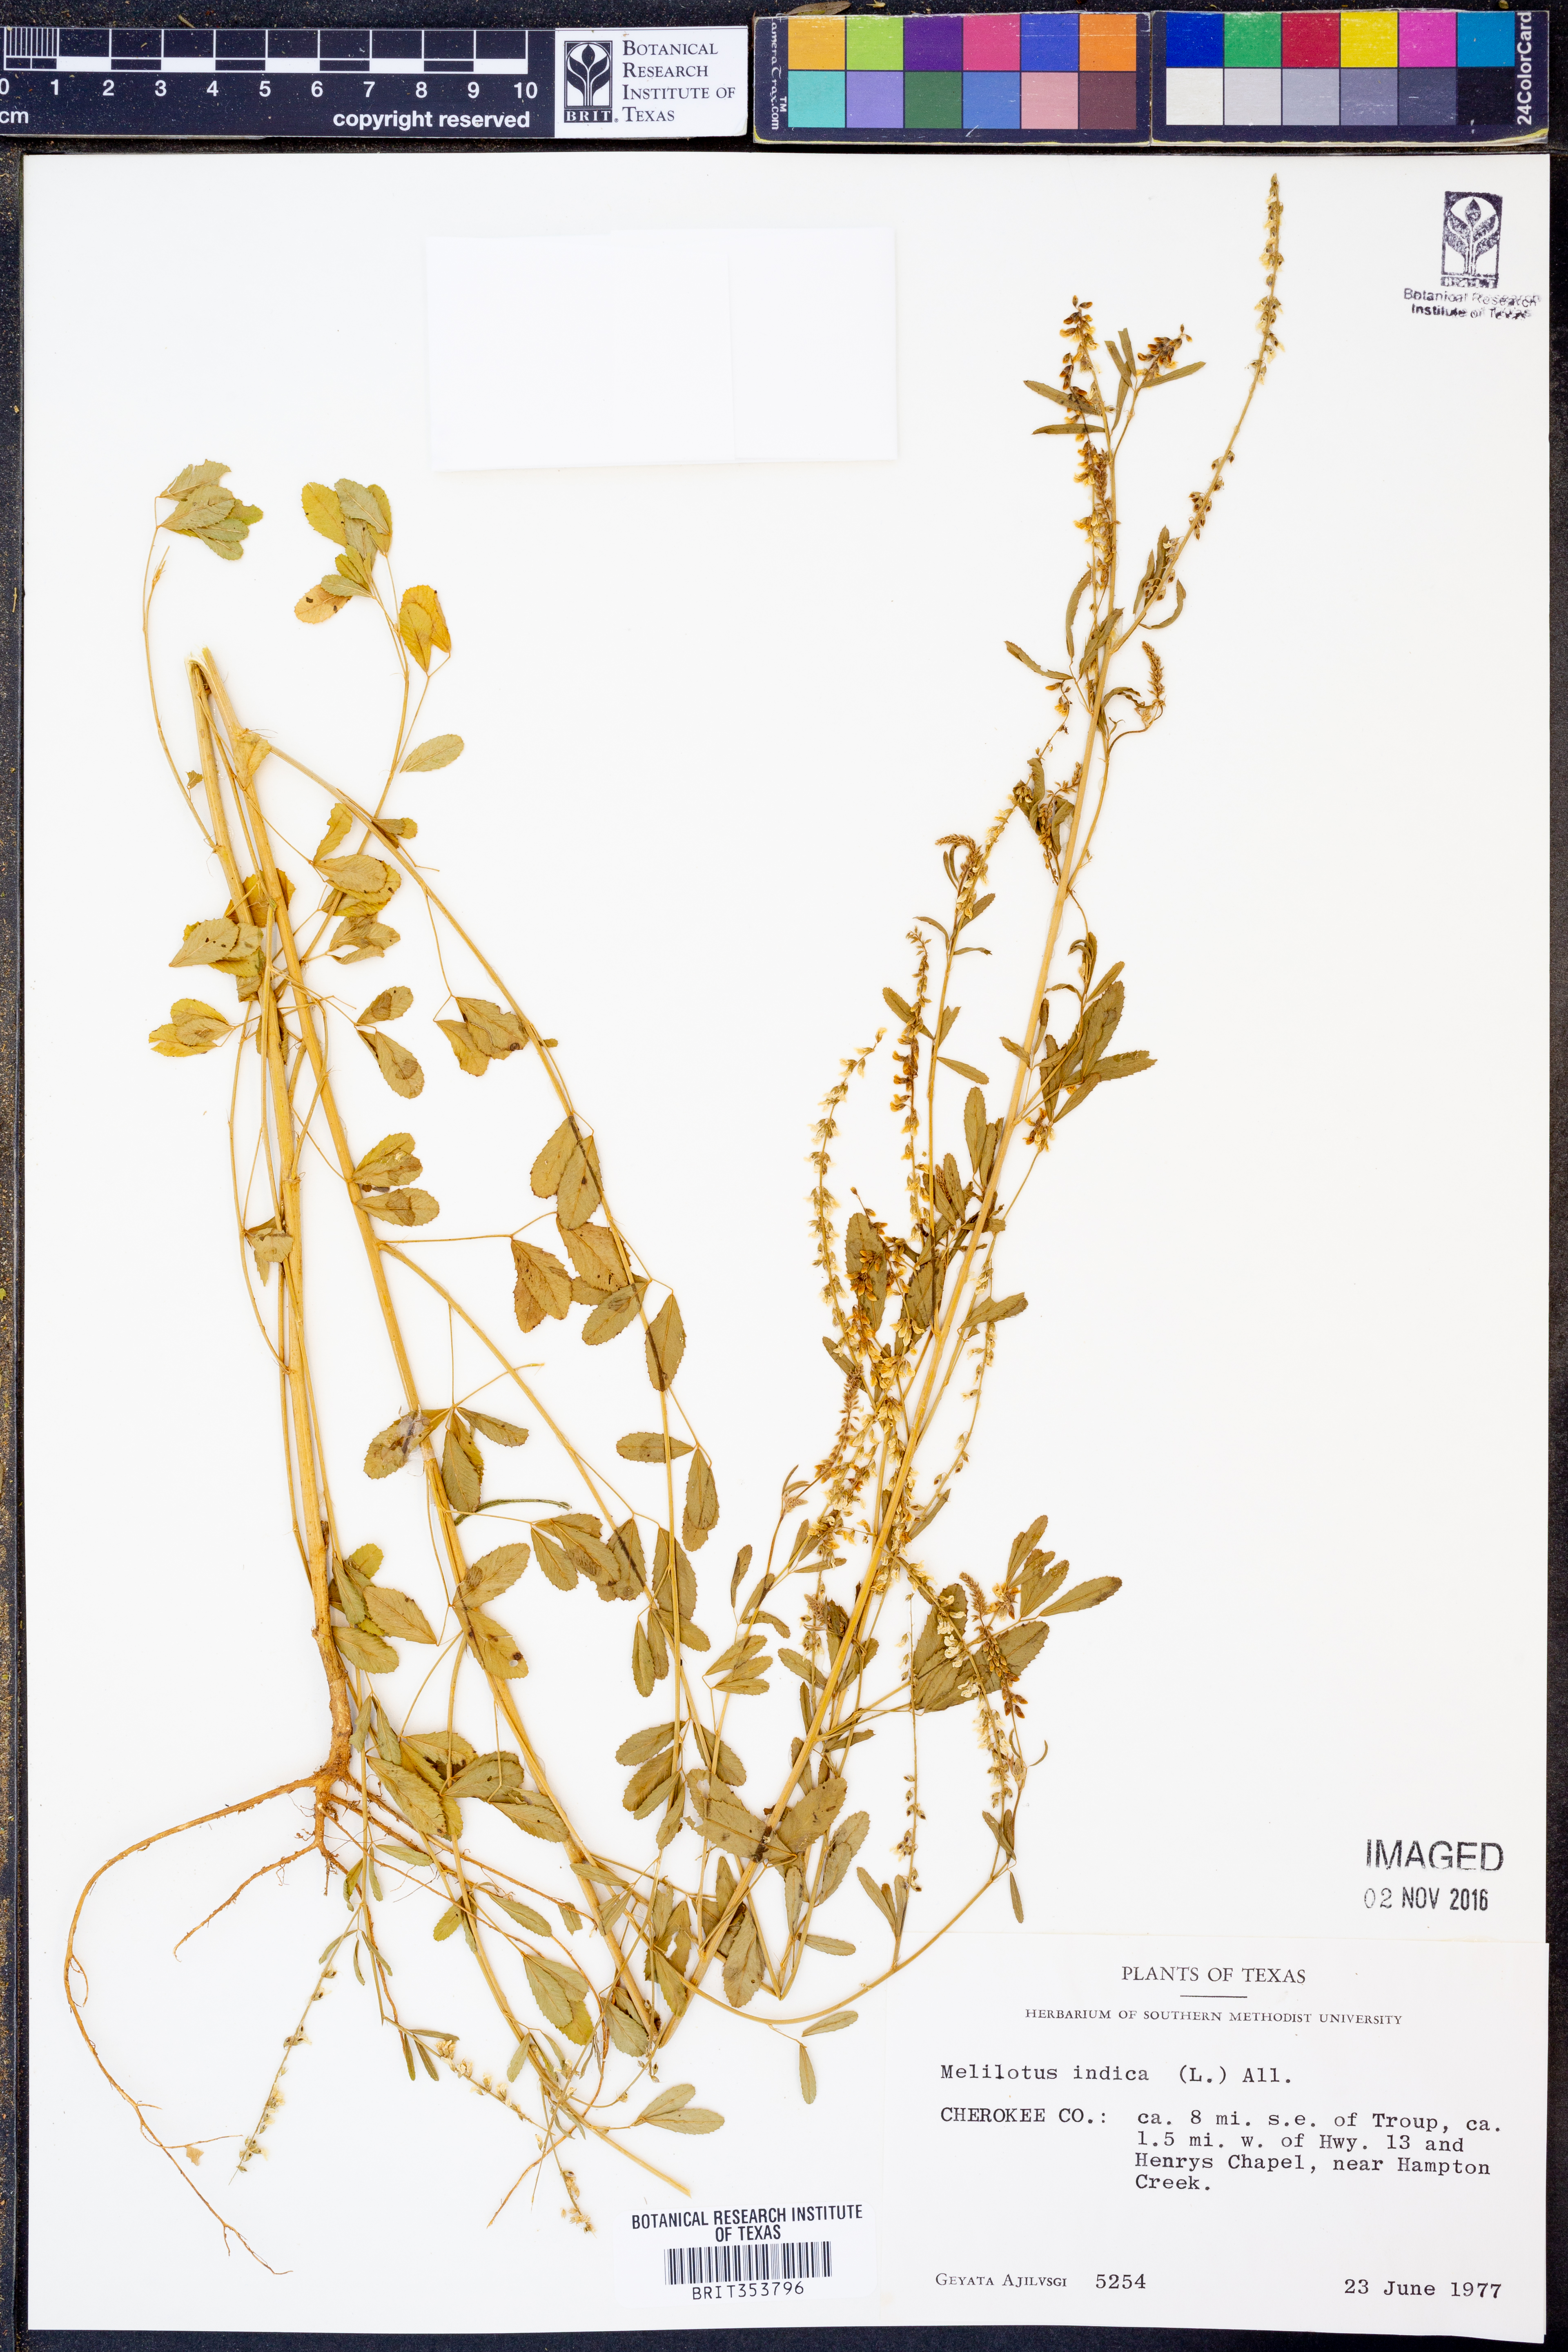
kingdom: Plantae
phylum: Tracheophyta
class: Magnoliopsida
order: Fabales
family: Fabaceae
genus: Melilotus
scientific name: Melilotus indicus
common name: Small melilot
